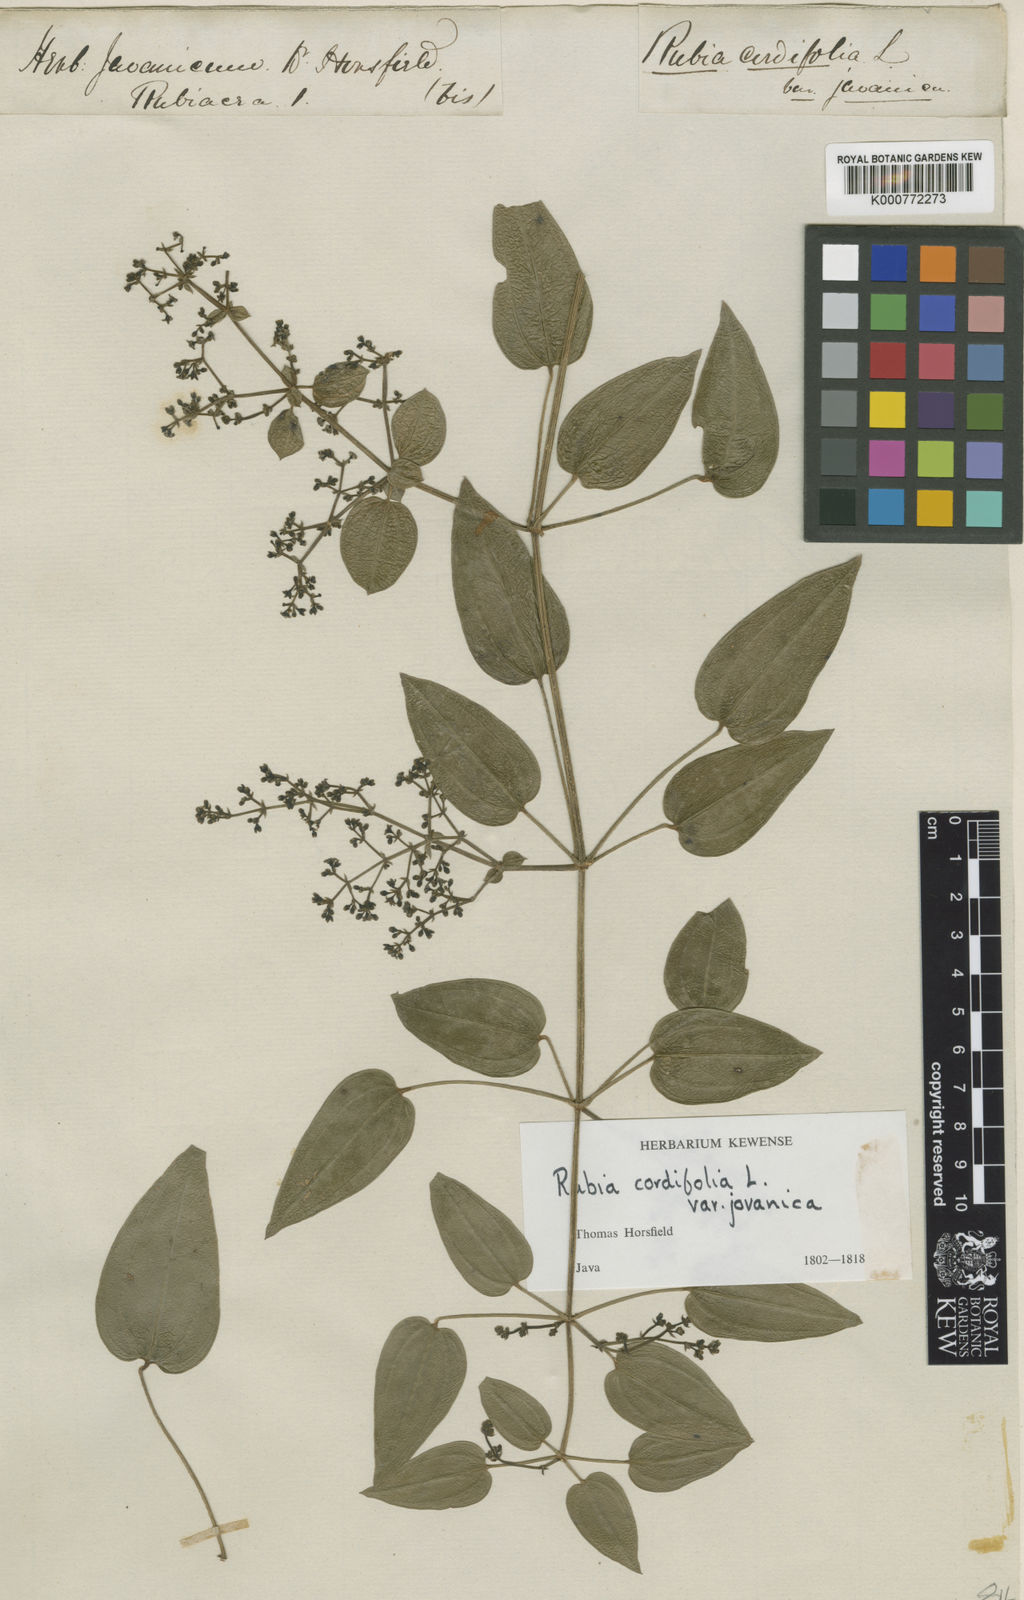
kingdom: Plantae
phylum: Tracheophyta
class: Magnoliopsida
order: Gentianales
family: Rubiaceae
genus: Rubia
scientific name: Rubia cordifolia
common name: Indian madder
